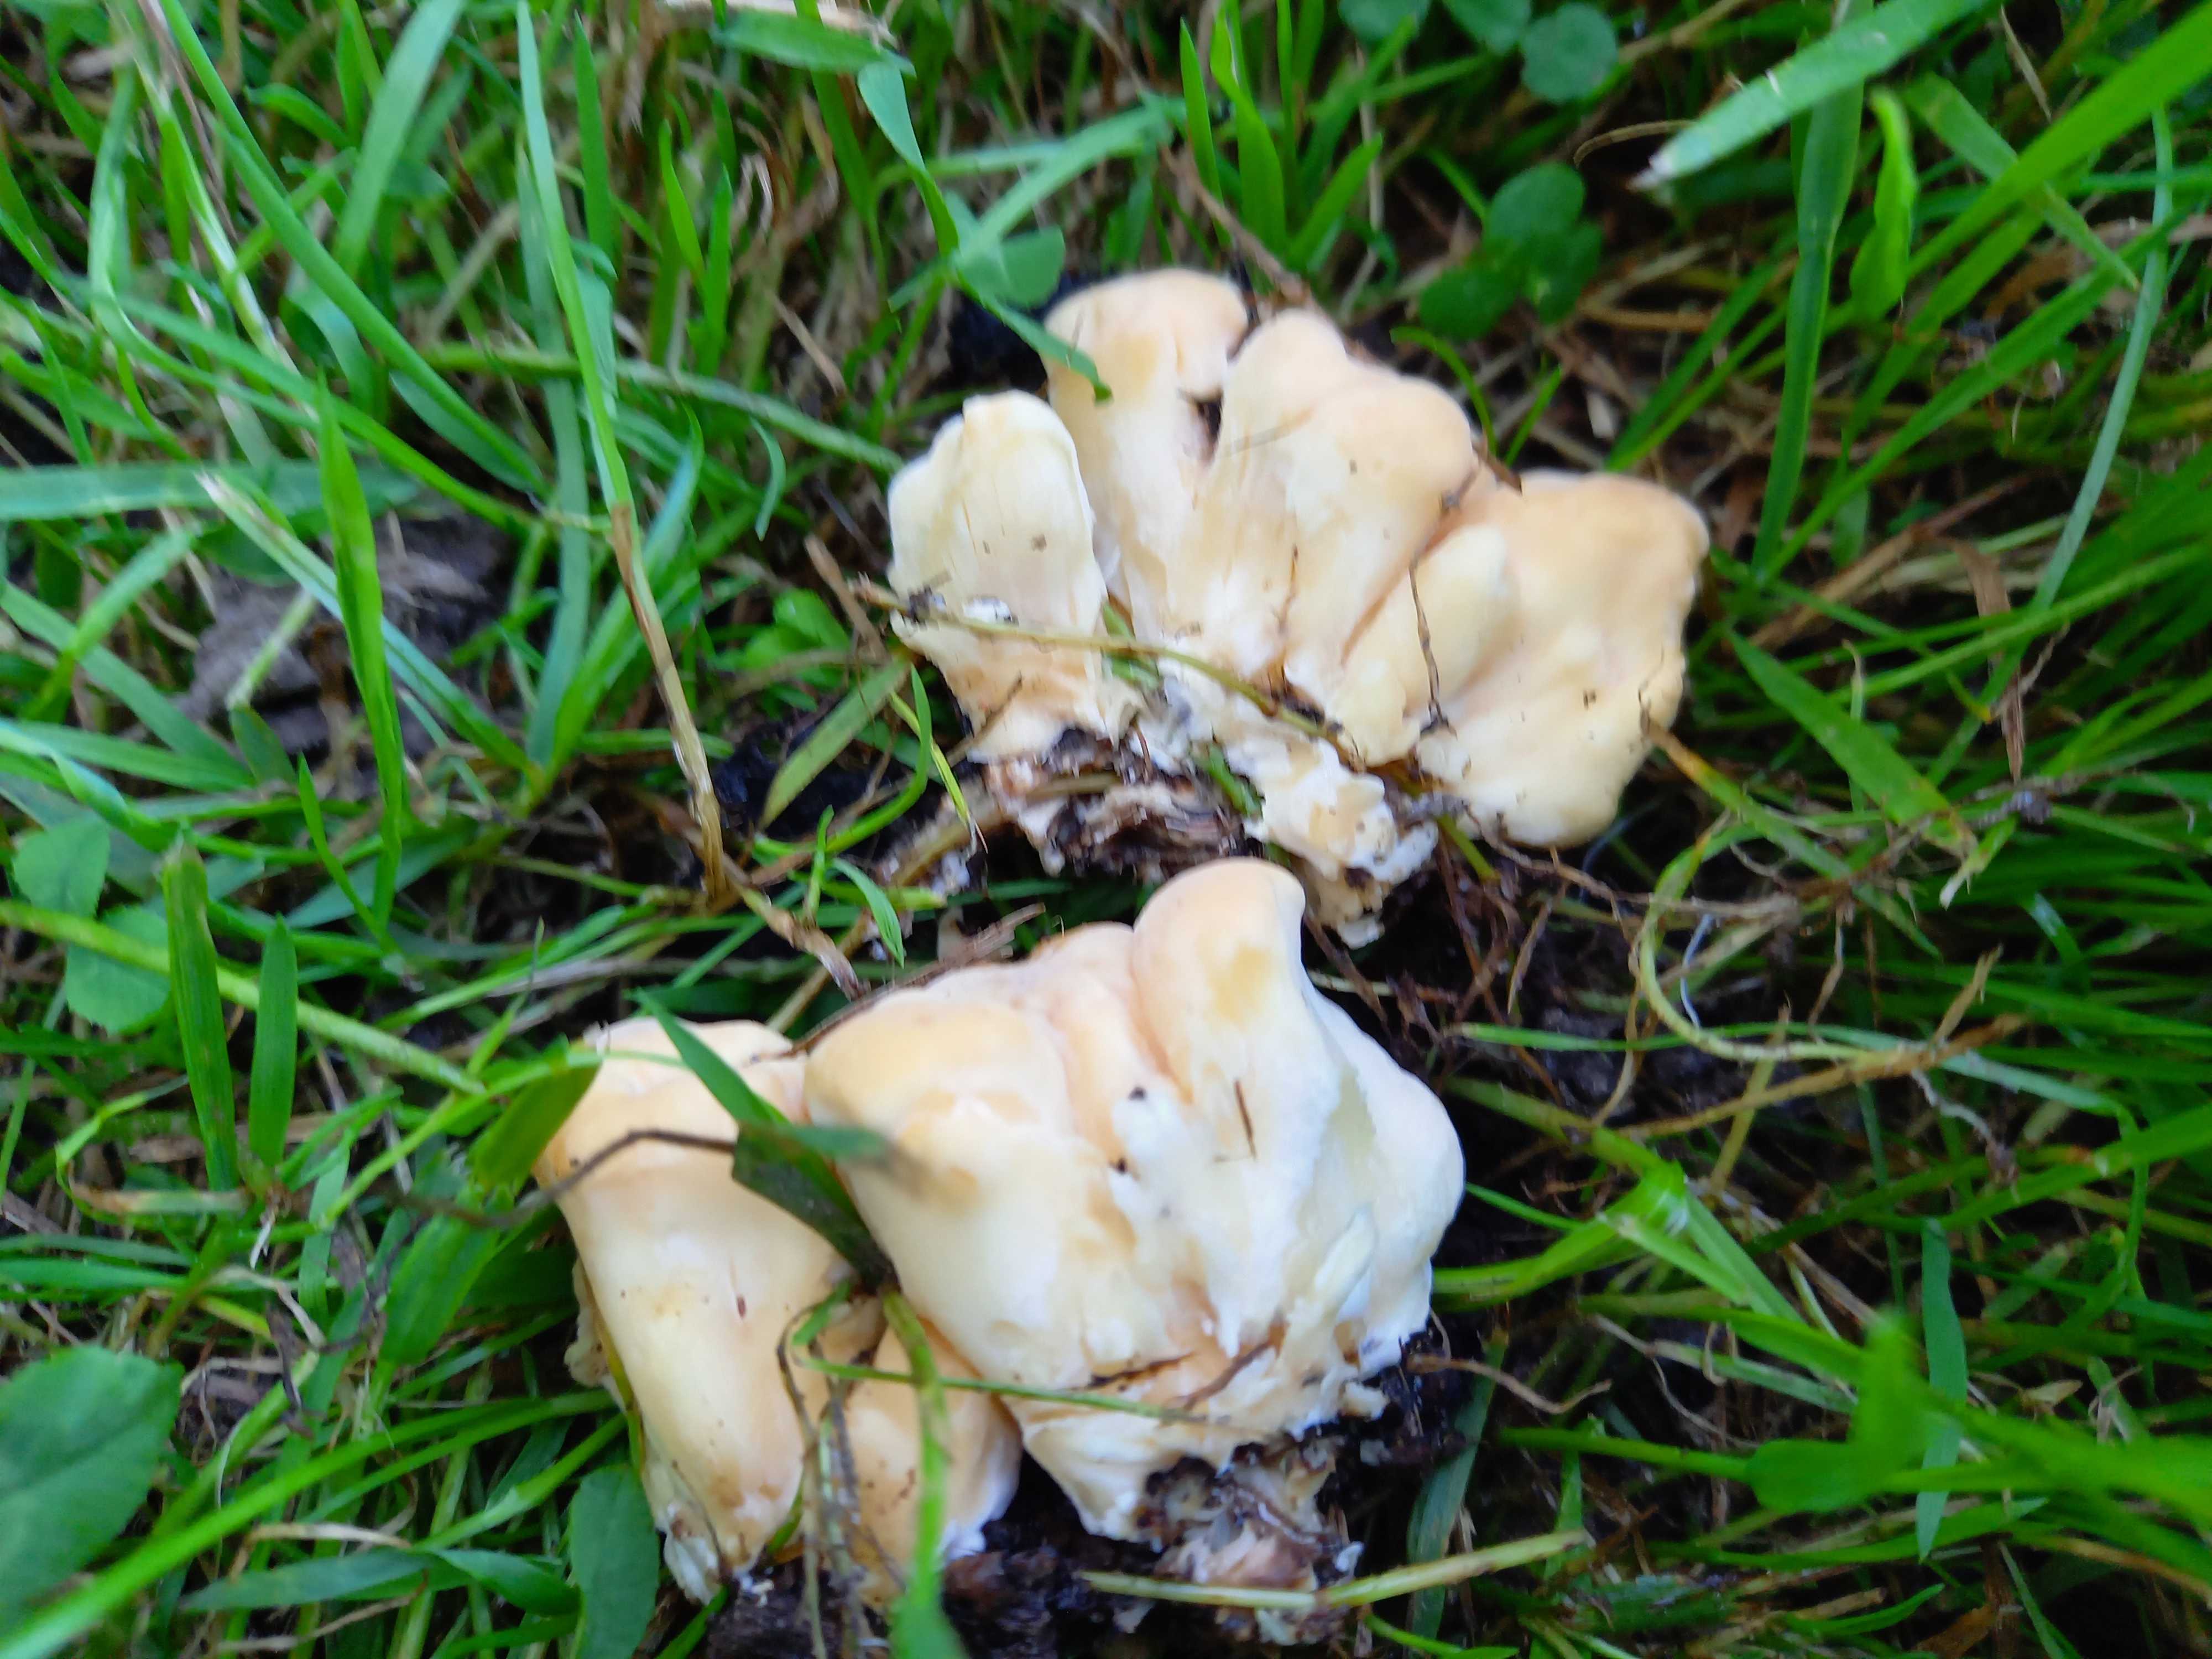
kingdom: Fungi
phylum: Basidiomycota
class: Agaricomycetes
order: Polyporales
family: Meripilaceae
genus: Meripilus
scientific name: Meripilus giganteus
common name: kæmpeporesvamp
